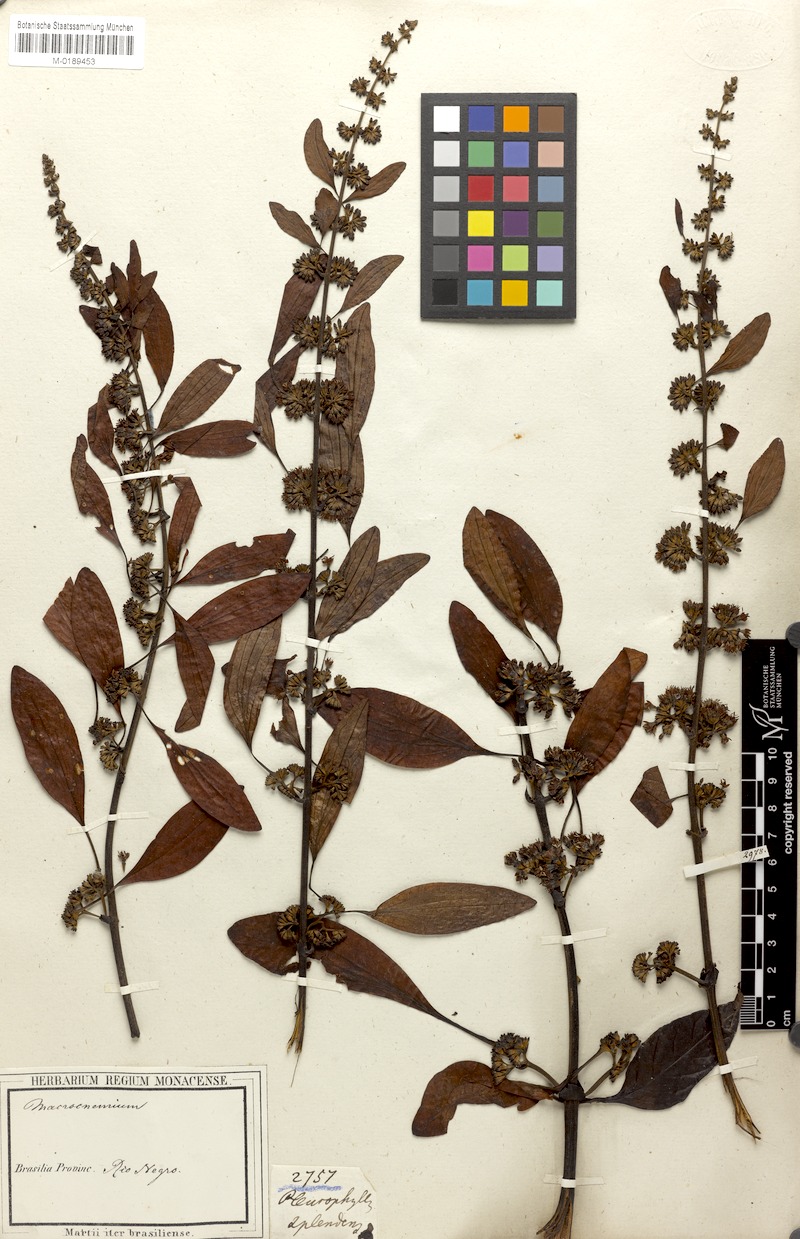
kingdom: Plantae
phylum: Tracheophyta
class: Magnoliopsida
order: Gentianales
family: Rubiaceae
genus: Warszewiczia
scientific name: Warszewiczia coccinea
